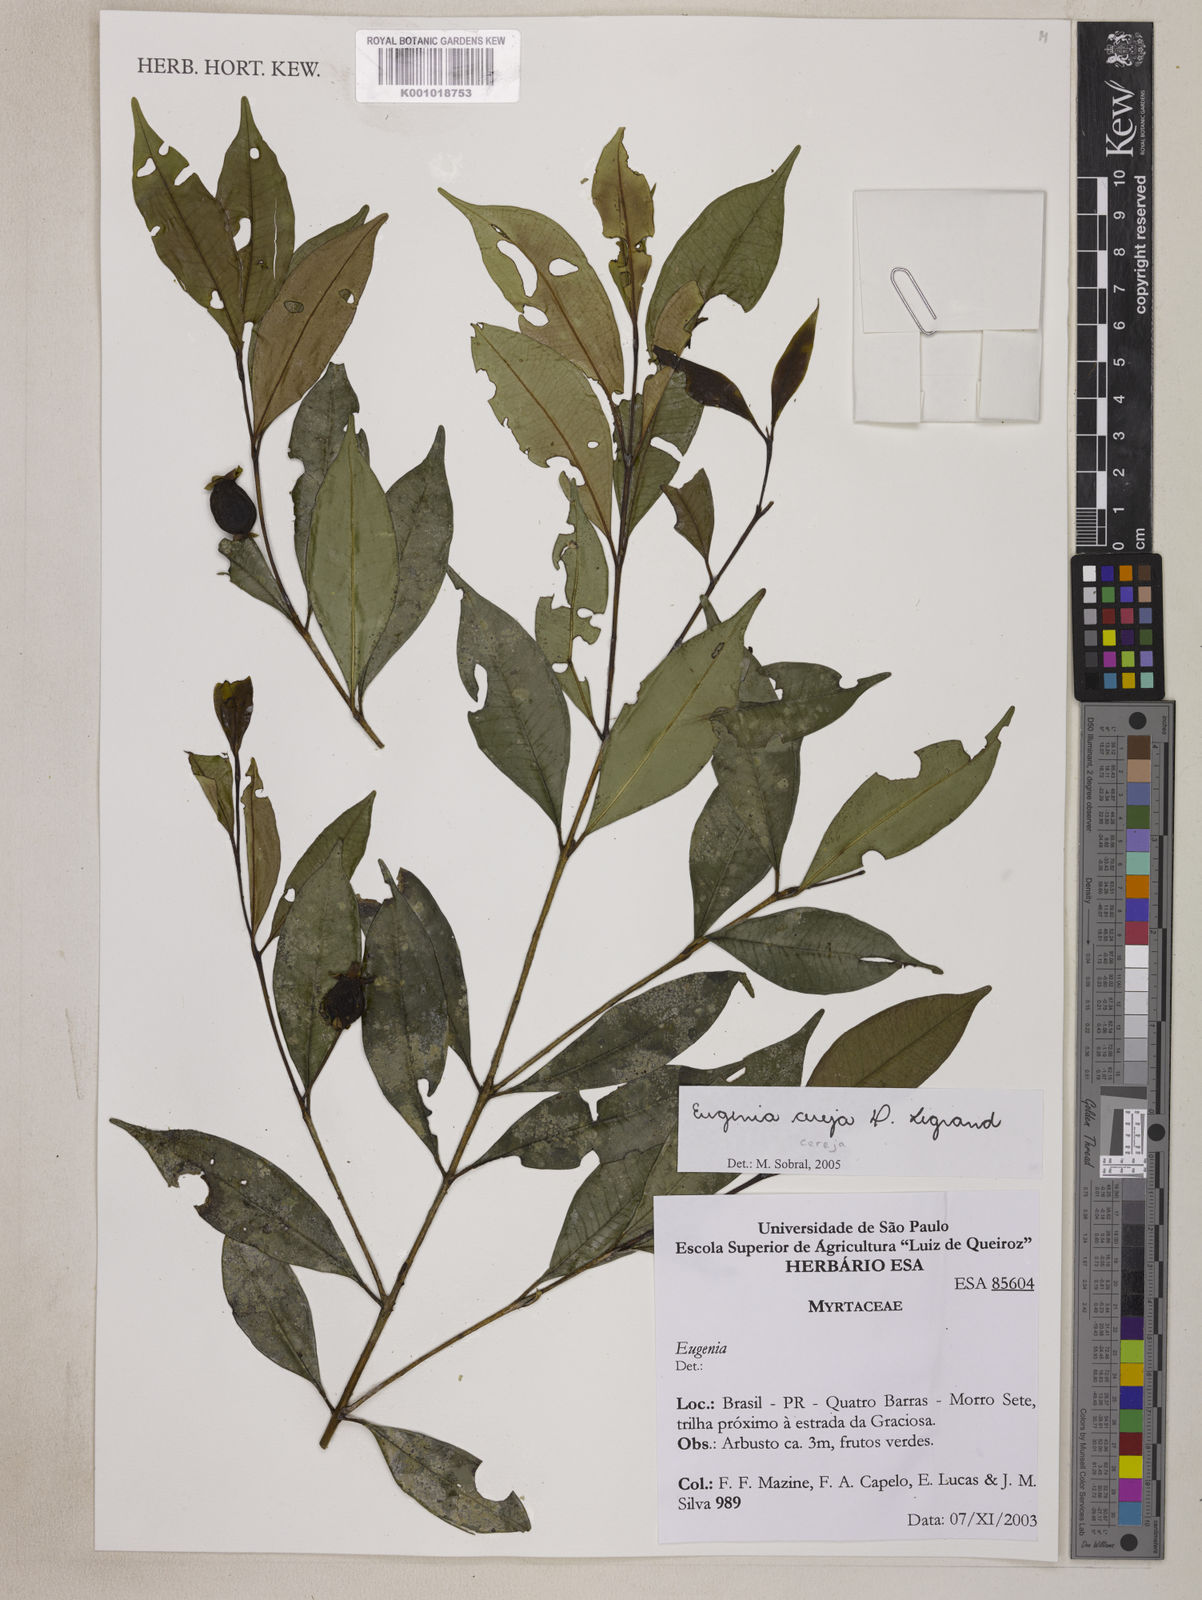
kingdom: Plantae
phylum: Tracheophyta
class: Magnoliopsida
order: Myrtales
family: Myrtaceae
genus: Eugenia
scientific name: Eugenia cereja
